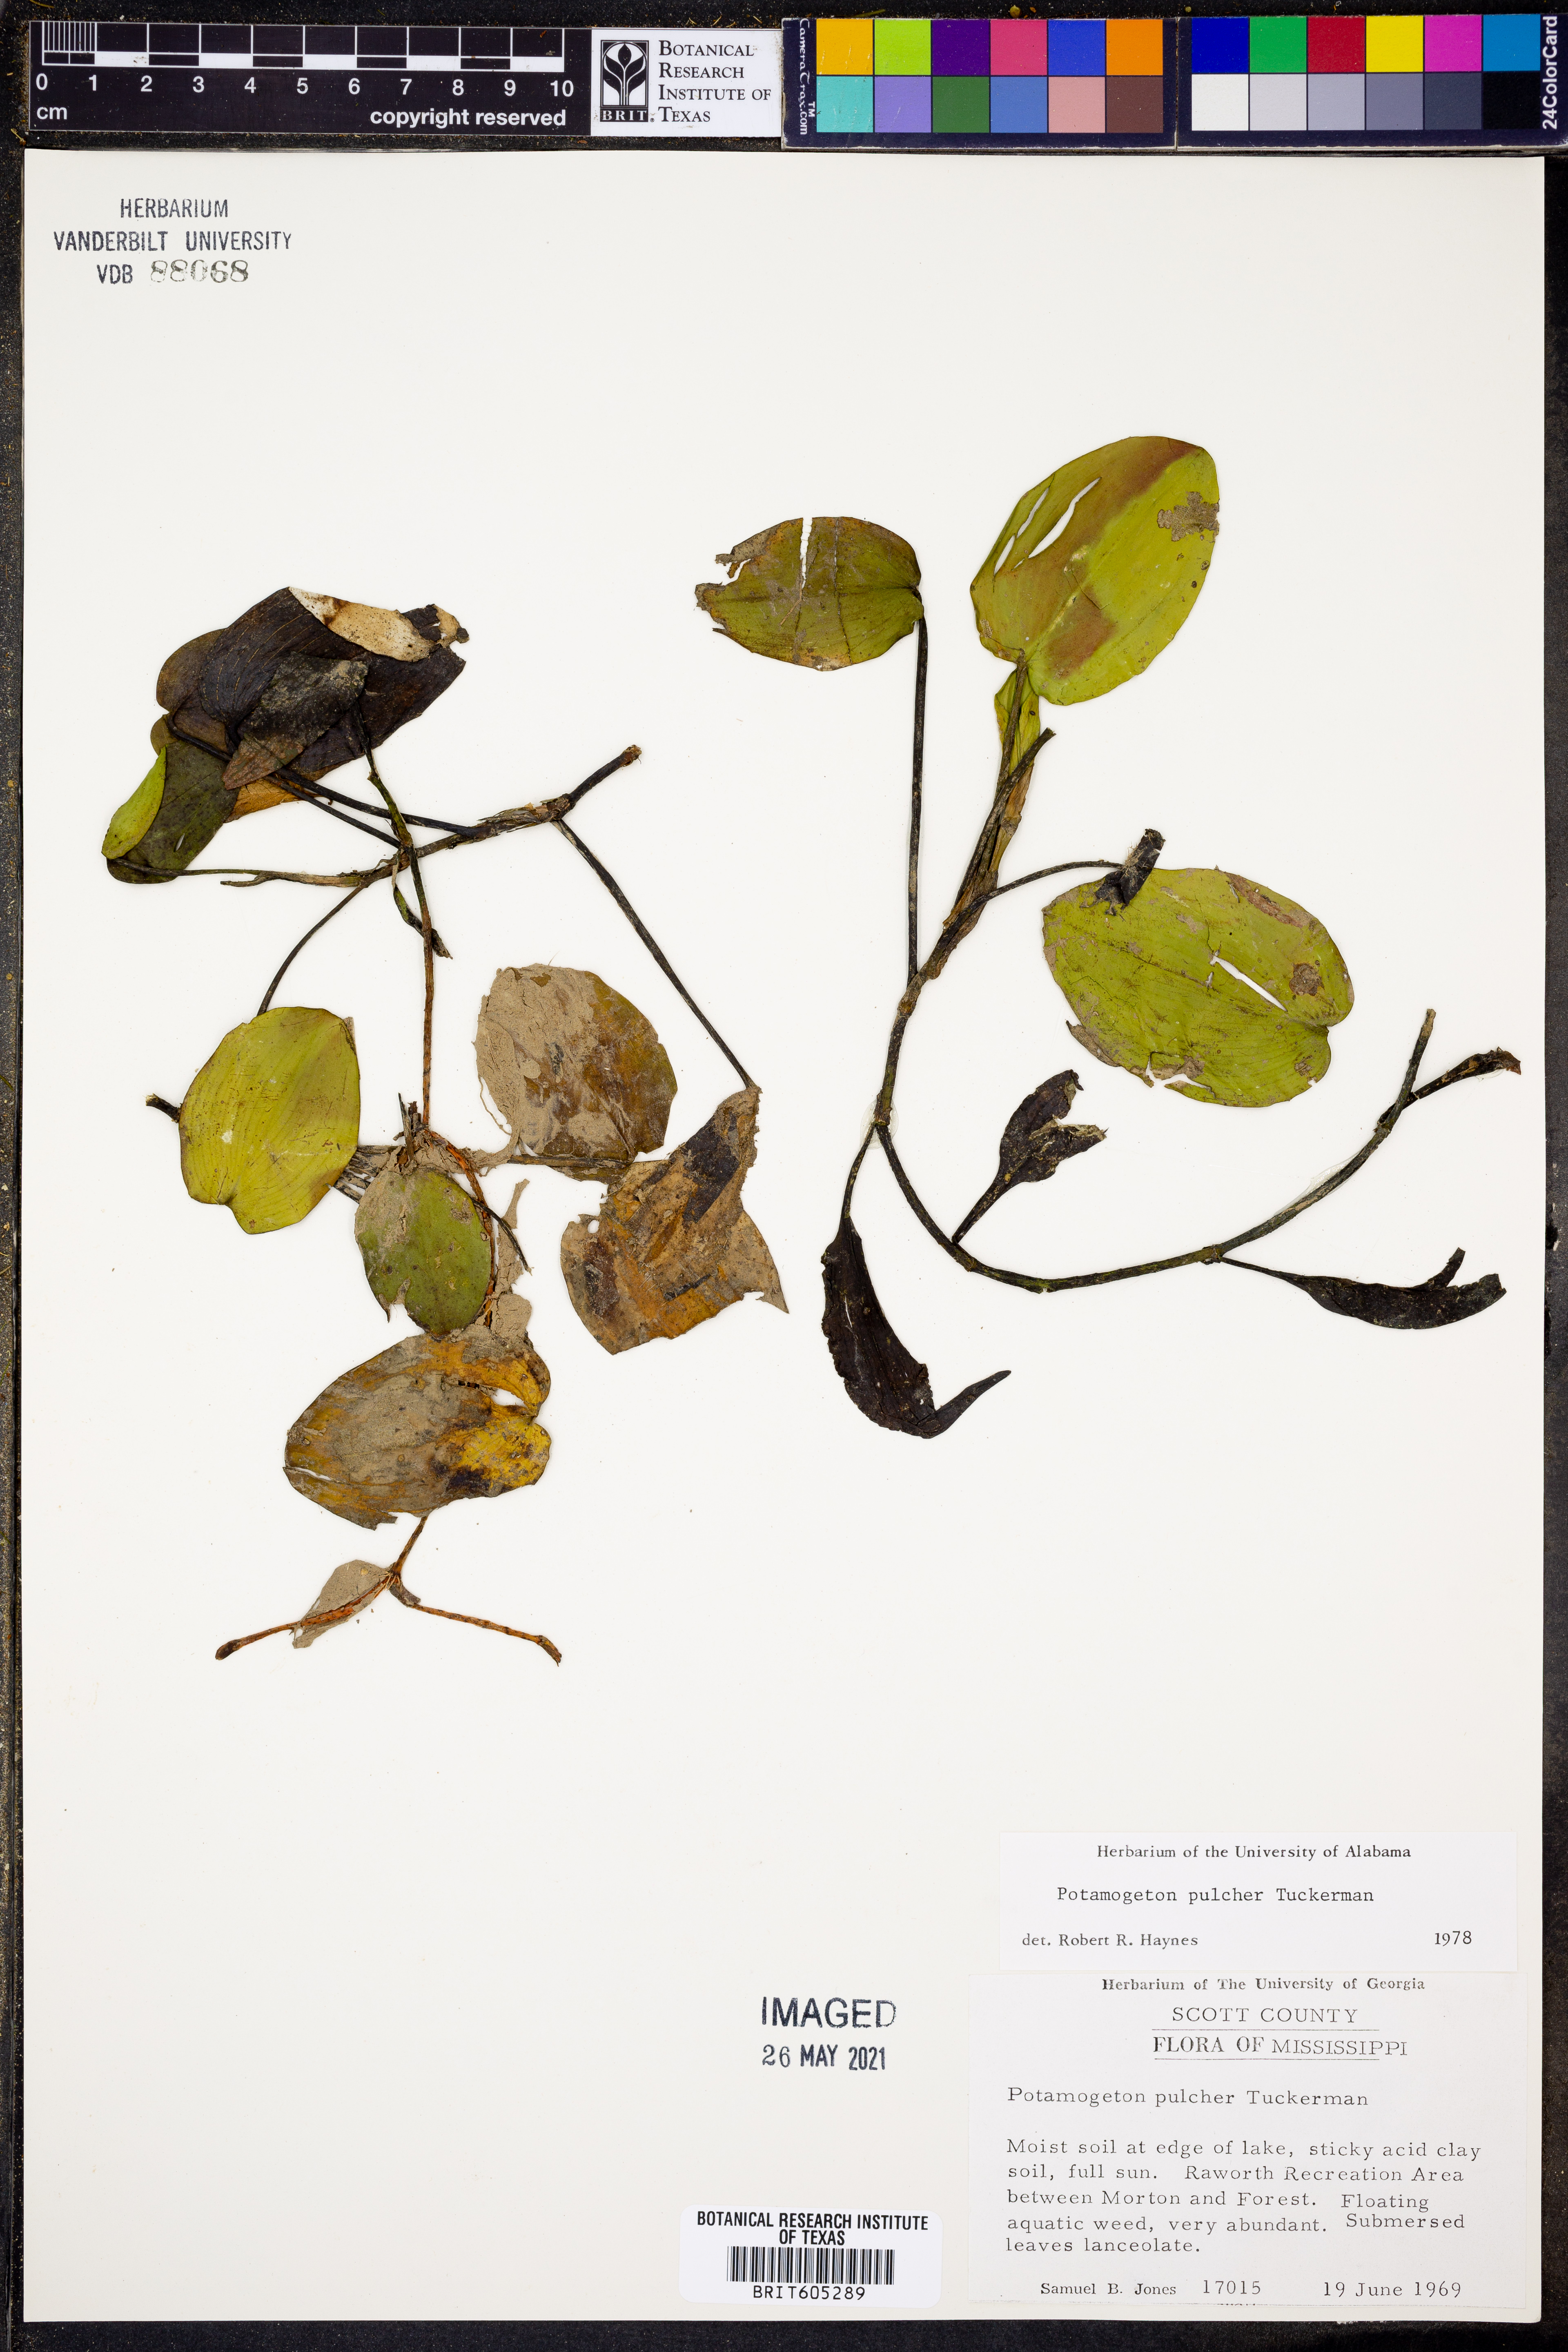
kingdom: Plantae
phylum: Tracheophyta
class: Liliopsida
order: Alismatales
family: Potamogetonaceae
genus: Potamogeton
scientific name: Potamogeton pulcher
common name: Heart-leaved pondweed
